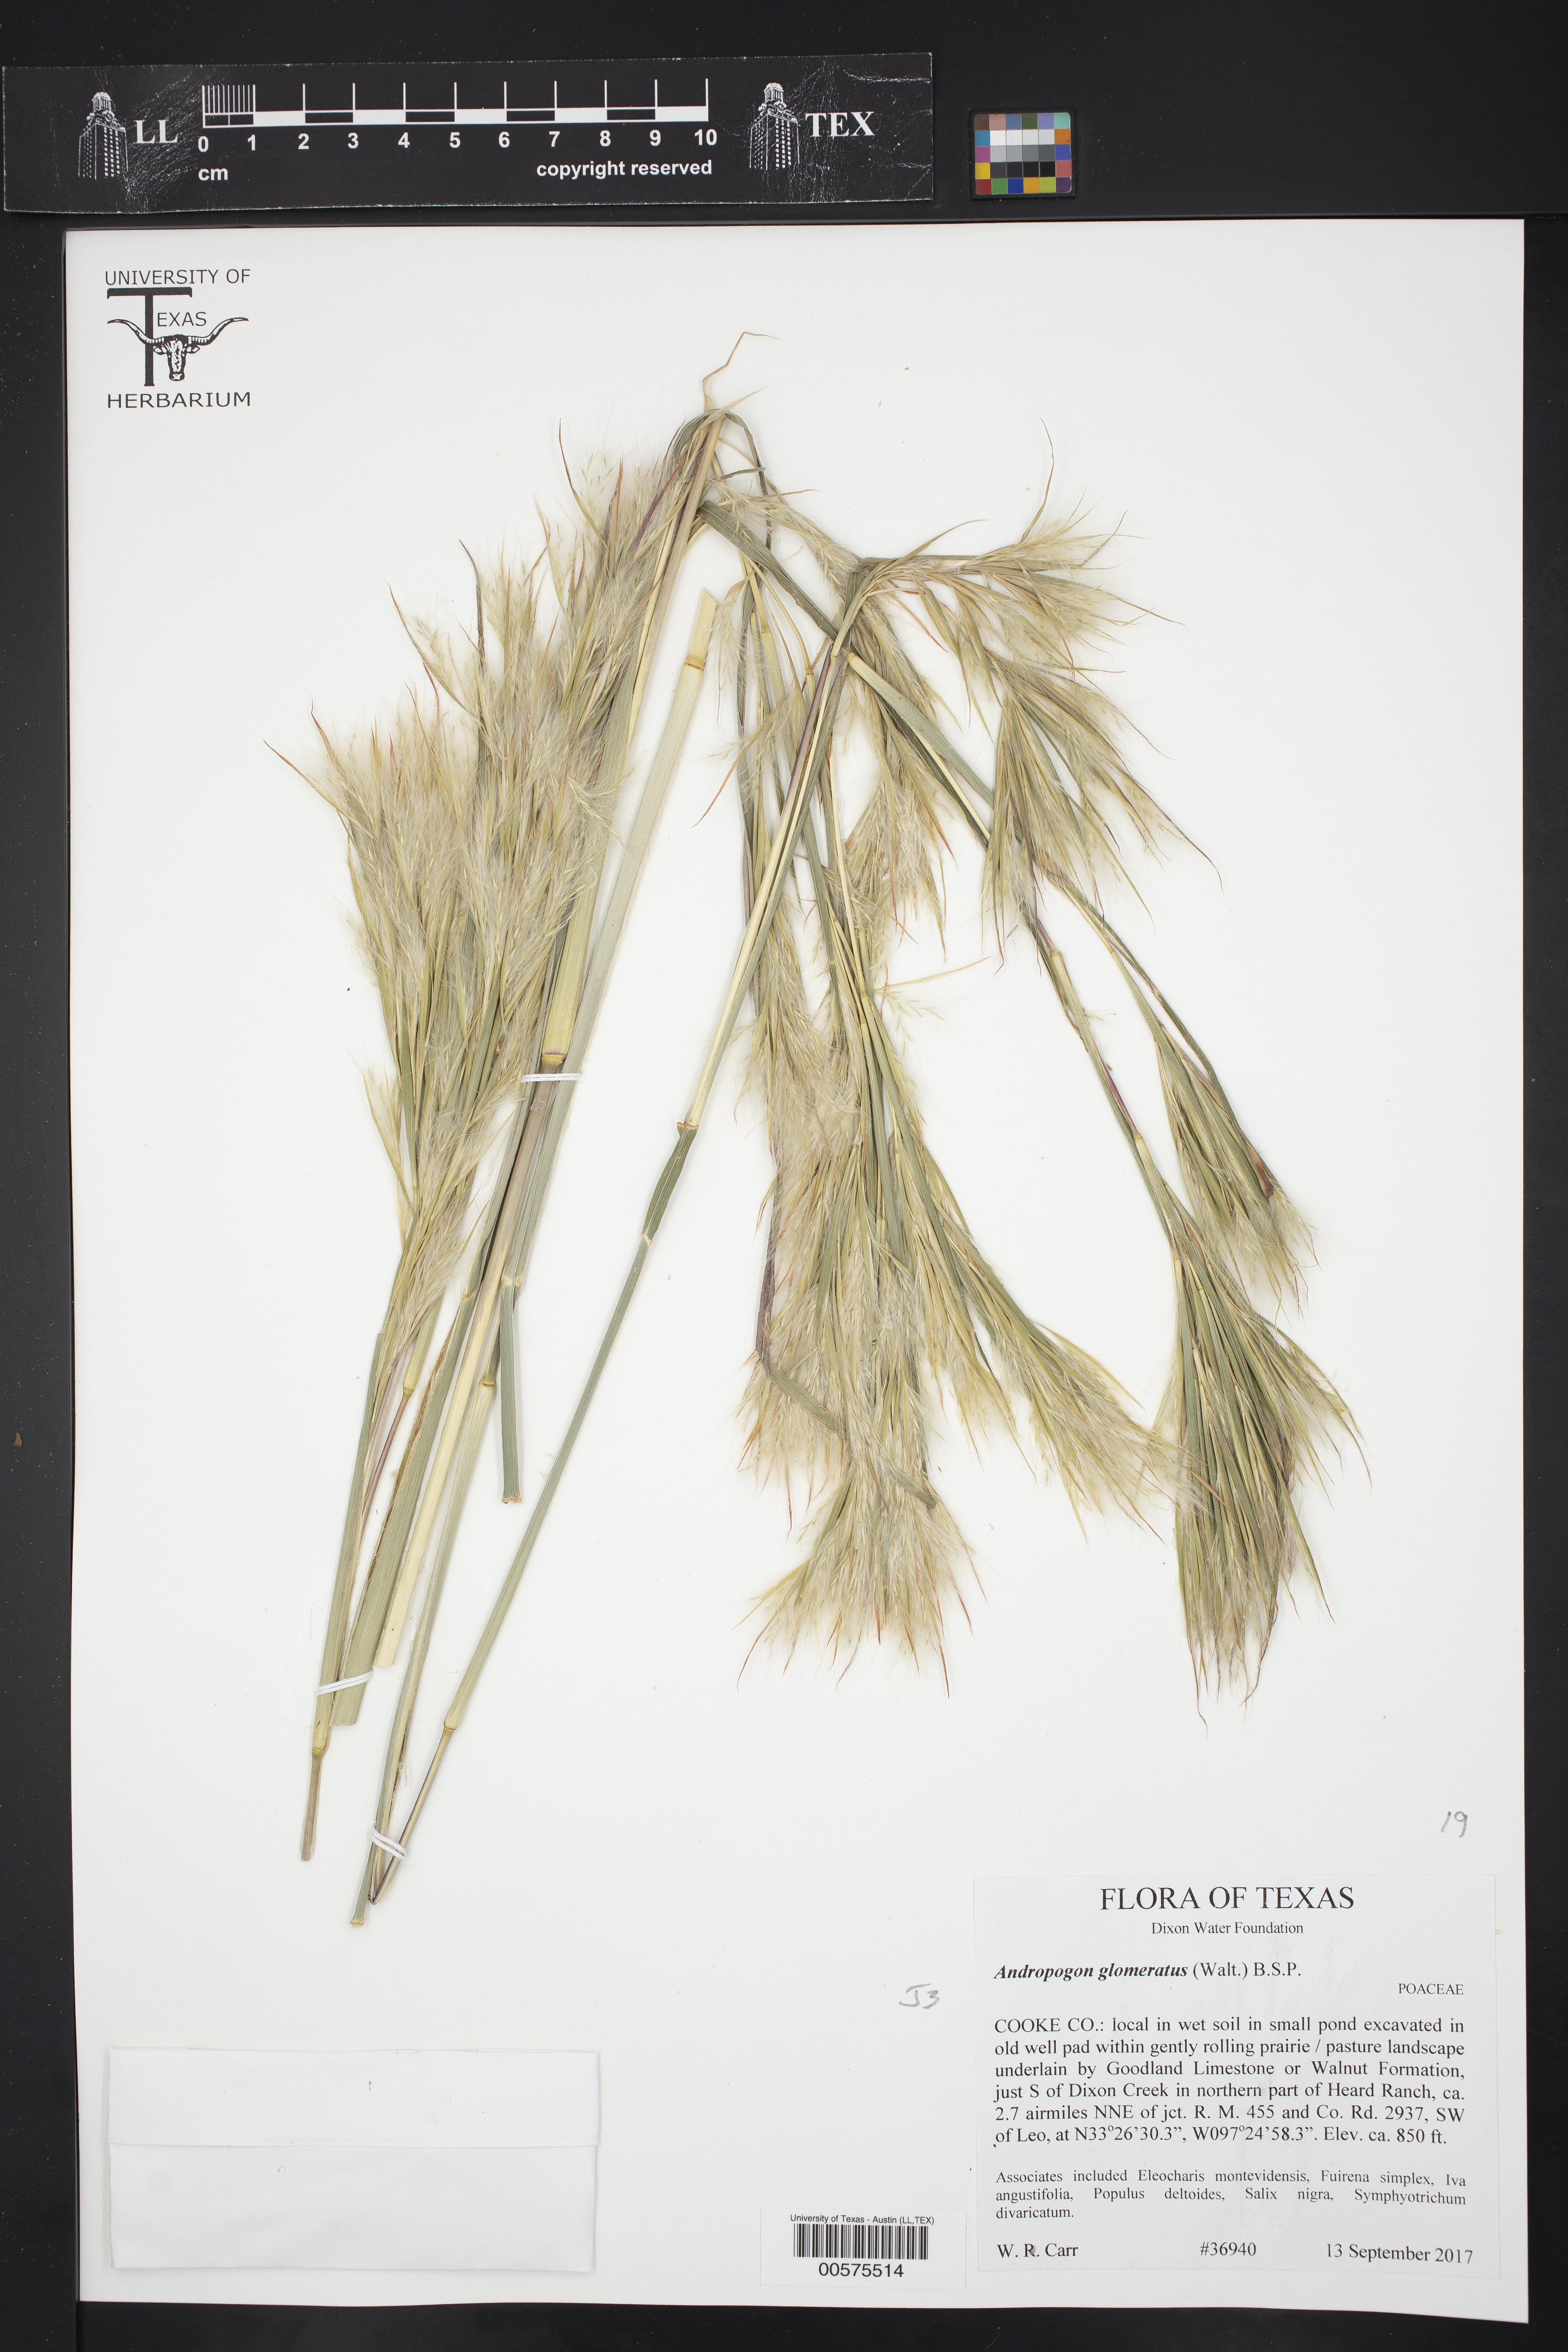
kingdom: Plantae
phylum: Tracheophyta
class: Liliopsida
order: Poales
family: Poaceae
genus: Andropogon
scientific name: Andropogon glomeratus
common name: Bushy beard grass
